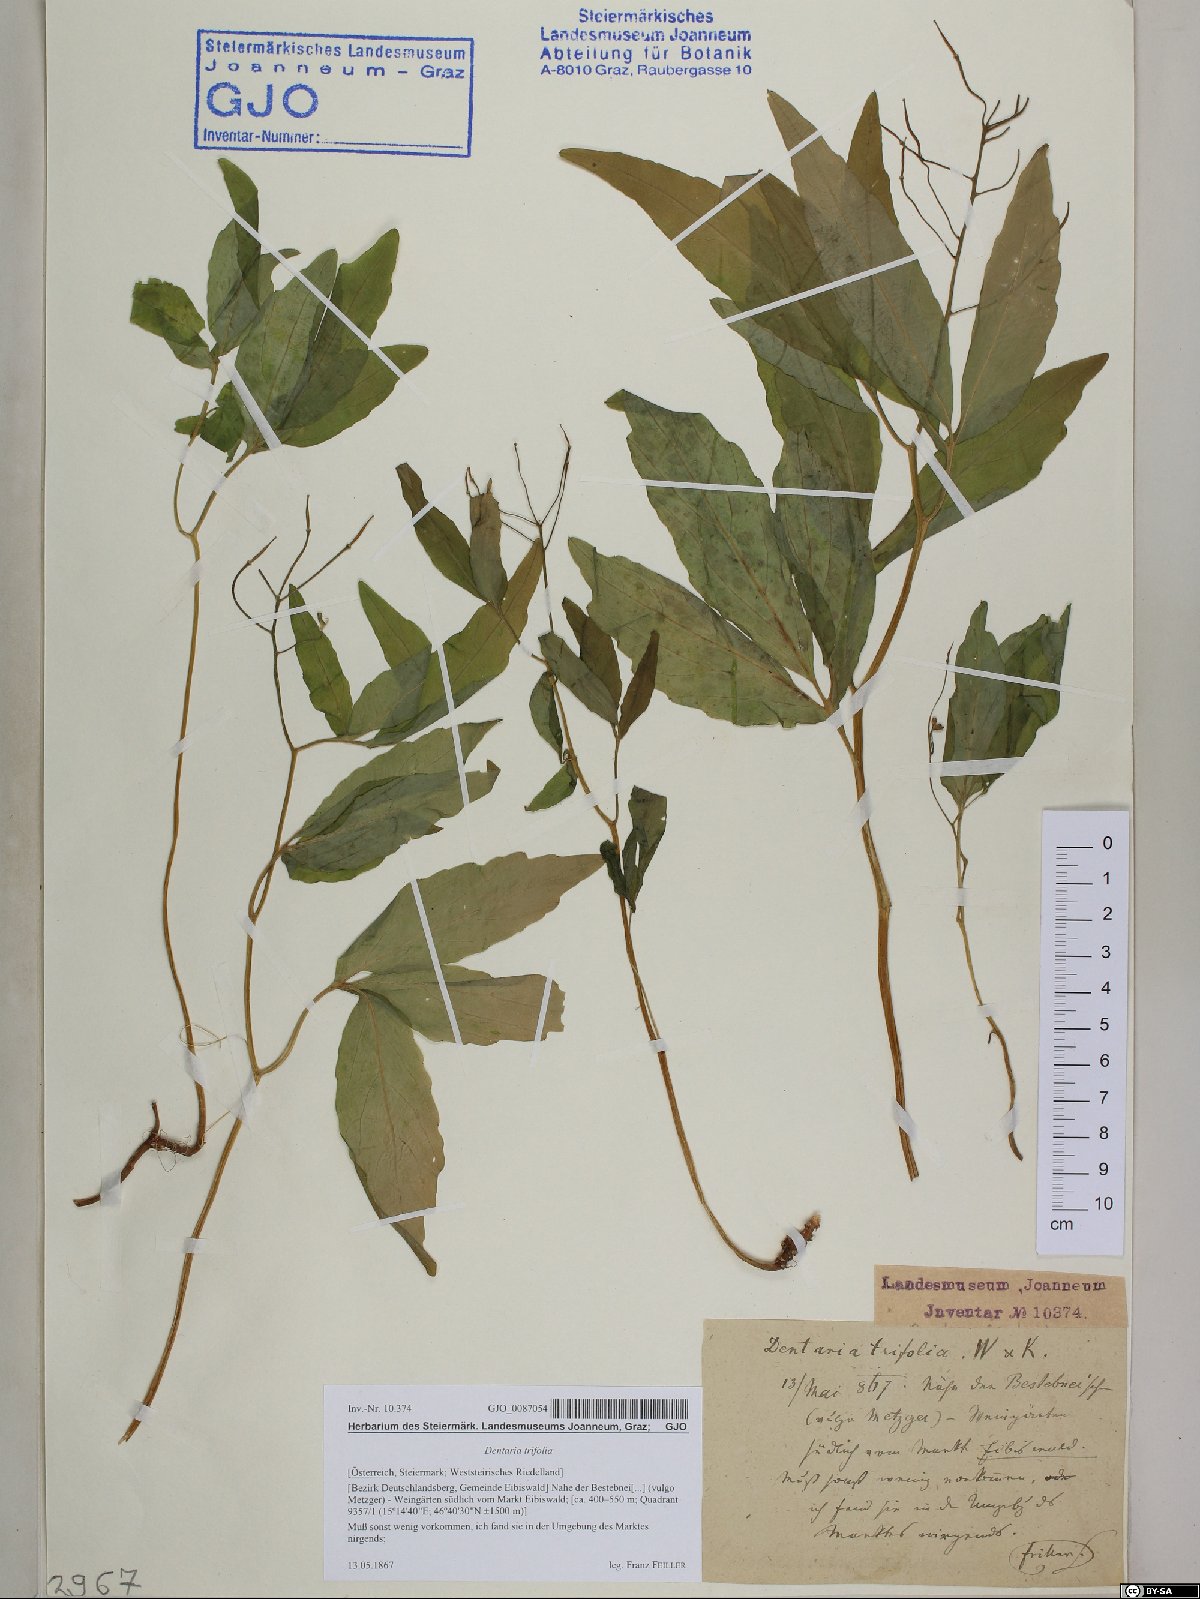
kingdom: Plantae
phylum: Tracheophyta
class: Magnoliopsida
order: Brassicales
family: Brassicaceae
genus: Cardamine
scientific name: Cardamine waldsteinii
